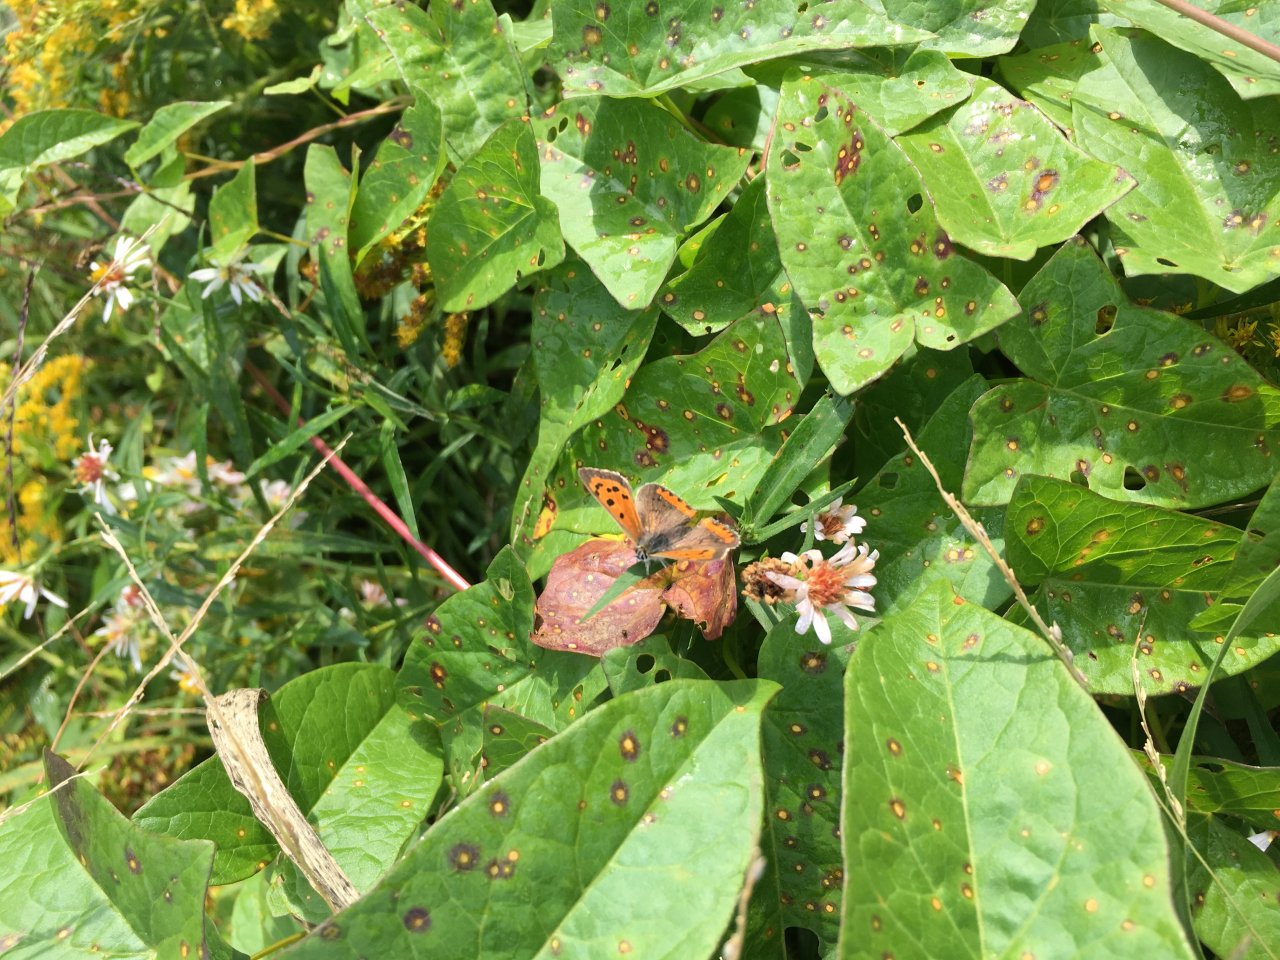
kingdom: Animalia
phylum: Arthropoda
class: Insecta
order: Lepidoptera
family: Lycaenidae
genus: Lycaena
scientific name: Lycaena phlaeas
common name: American Copper
